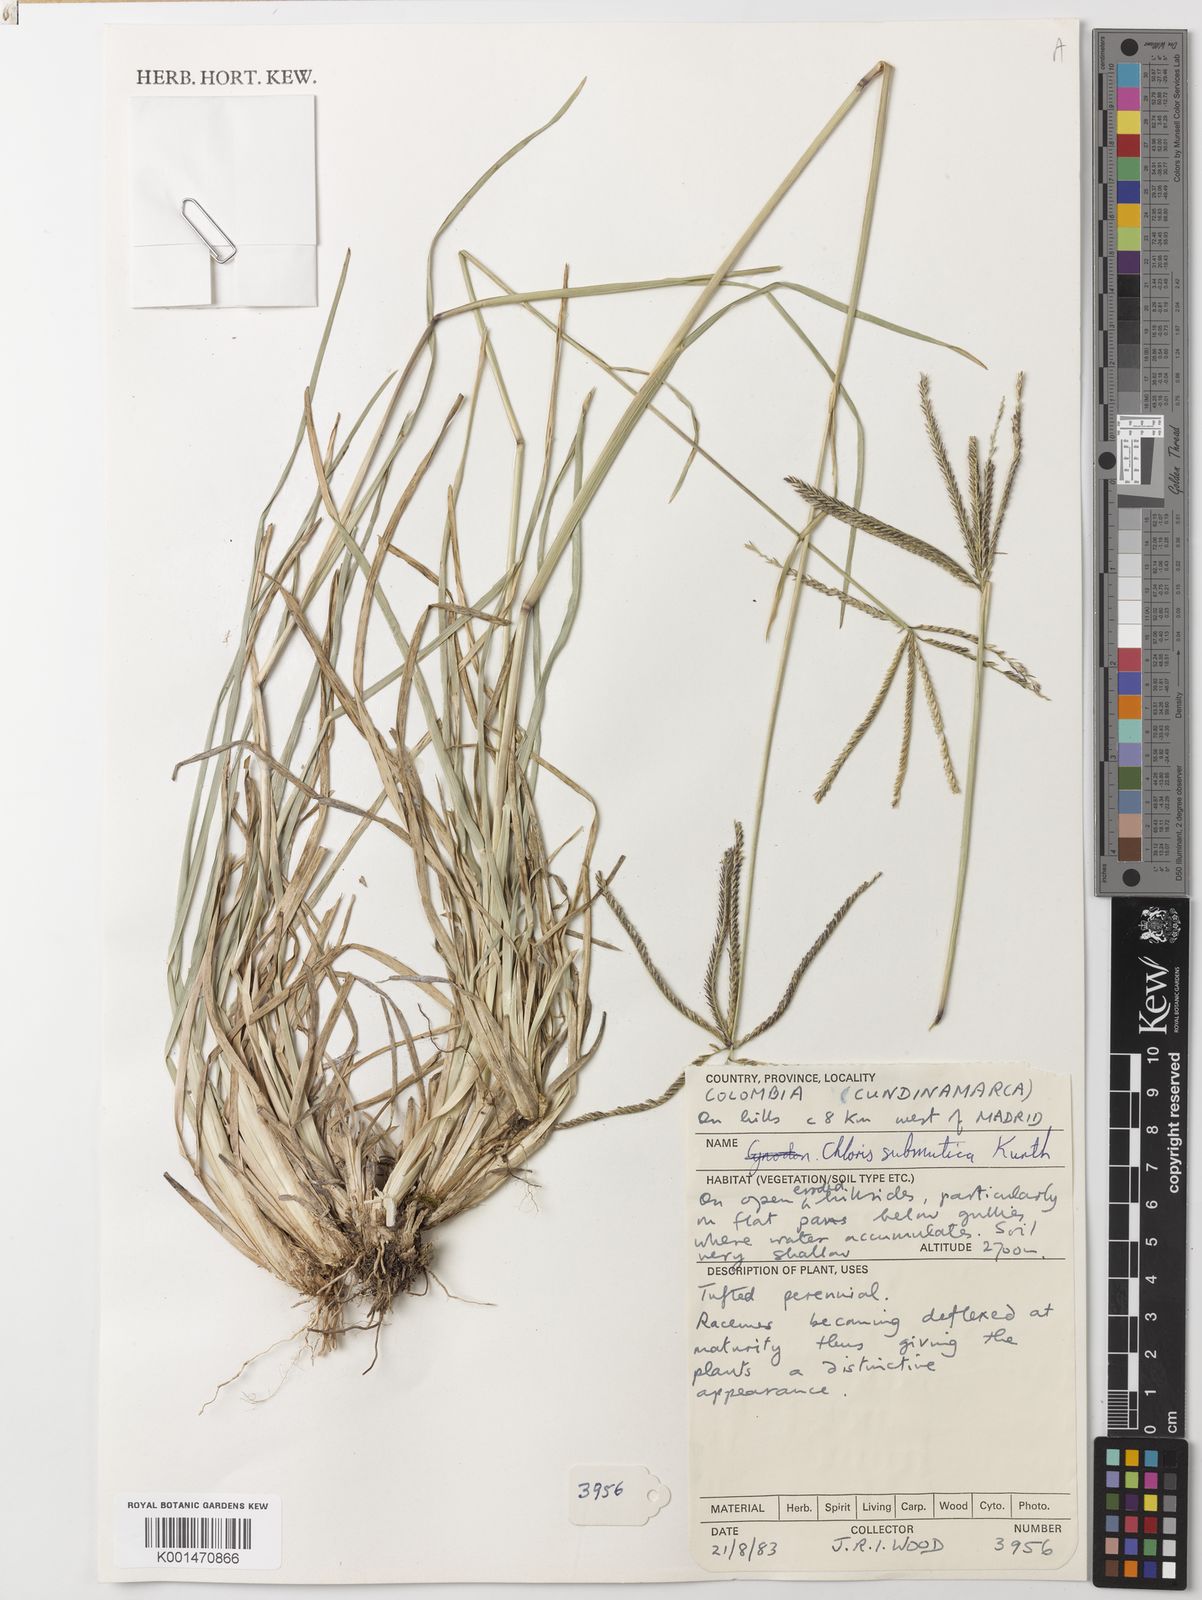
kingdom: Plantae
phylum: Tracheophyta
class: Liliopsida
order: Poales
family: Poaceae
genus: Chloris
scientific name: Chloris submutica
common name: Mexican windmill grass
